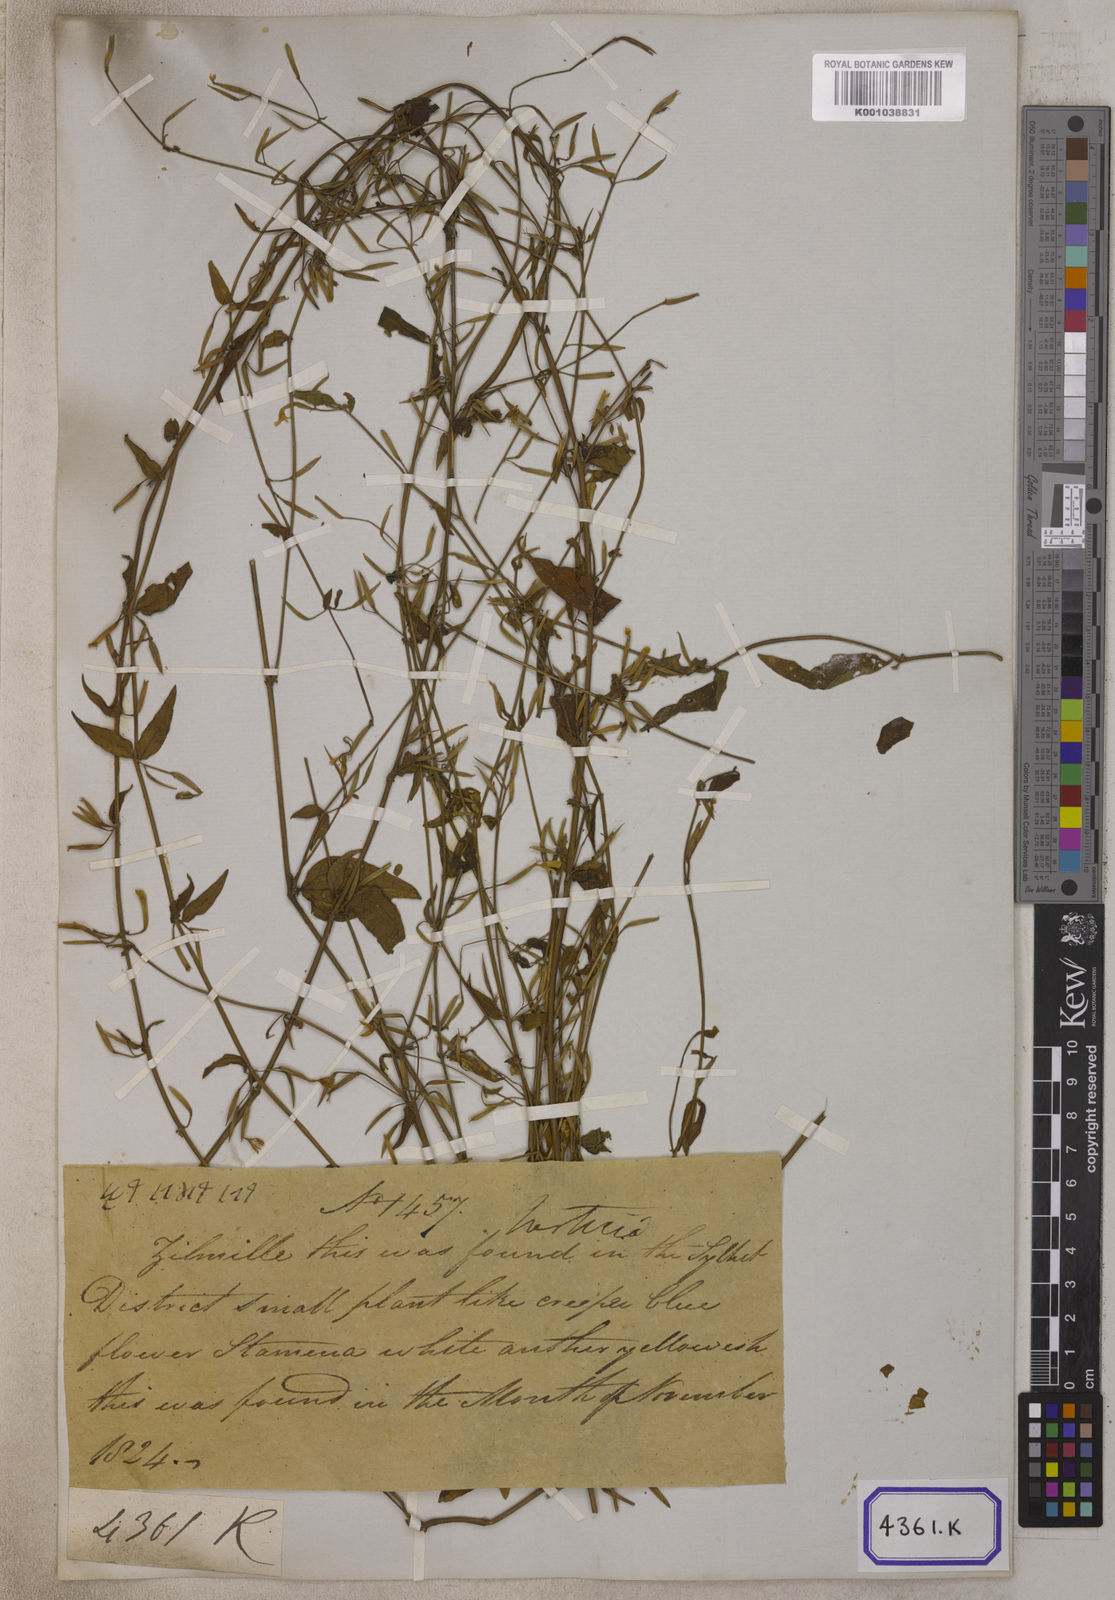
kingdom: Plantae
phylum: Tracheophyta
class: Magnoliopsida
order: Gentianales
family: Gentianaceae
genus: Canscora
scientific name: Canscora
